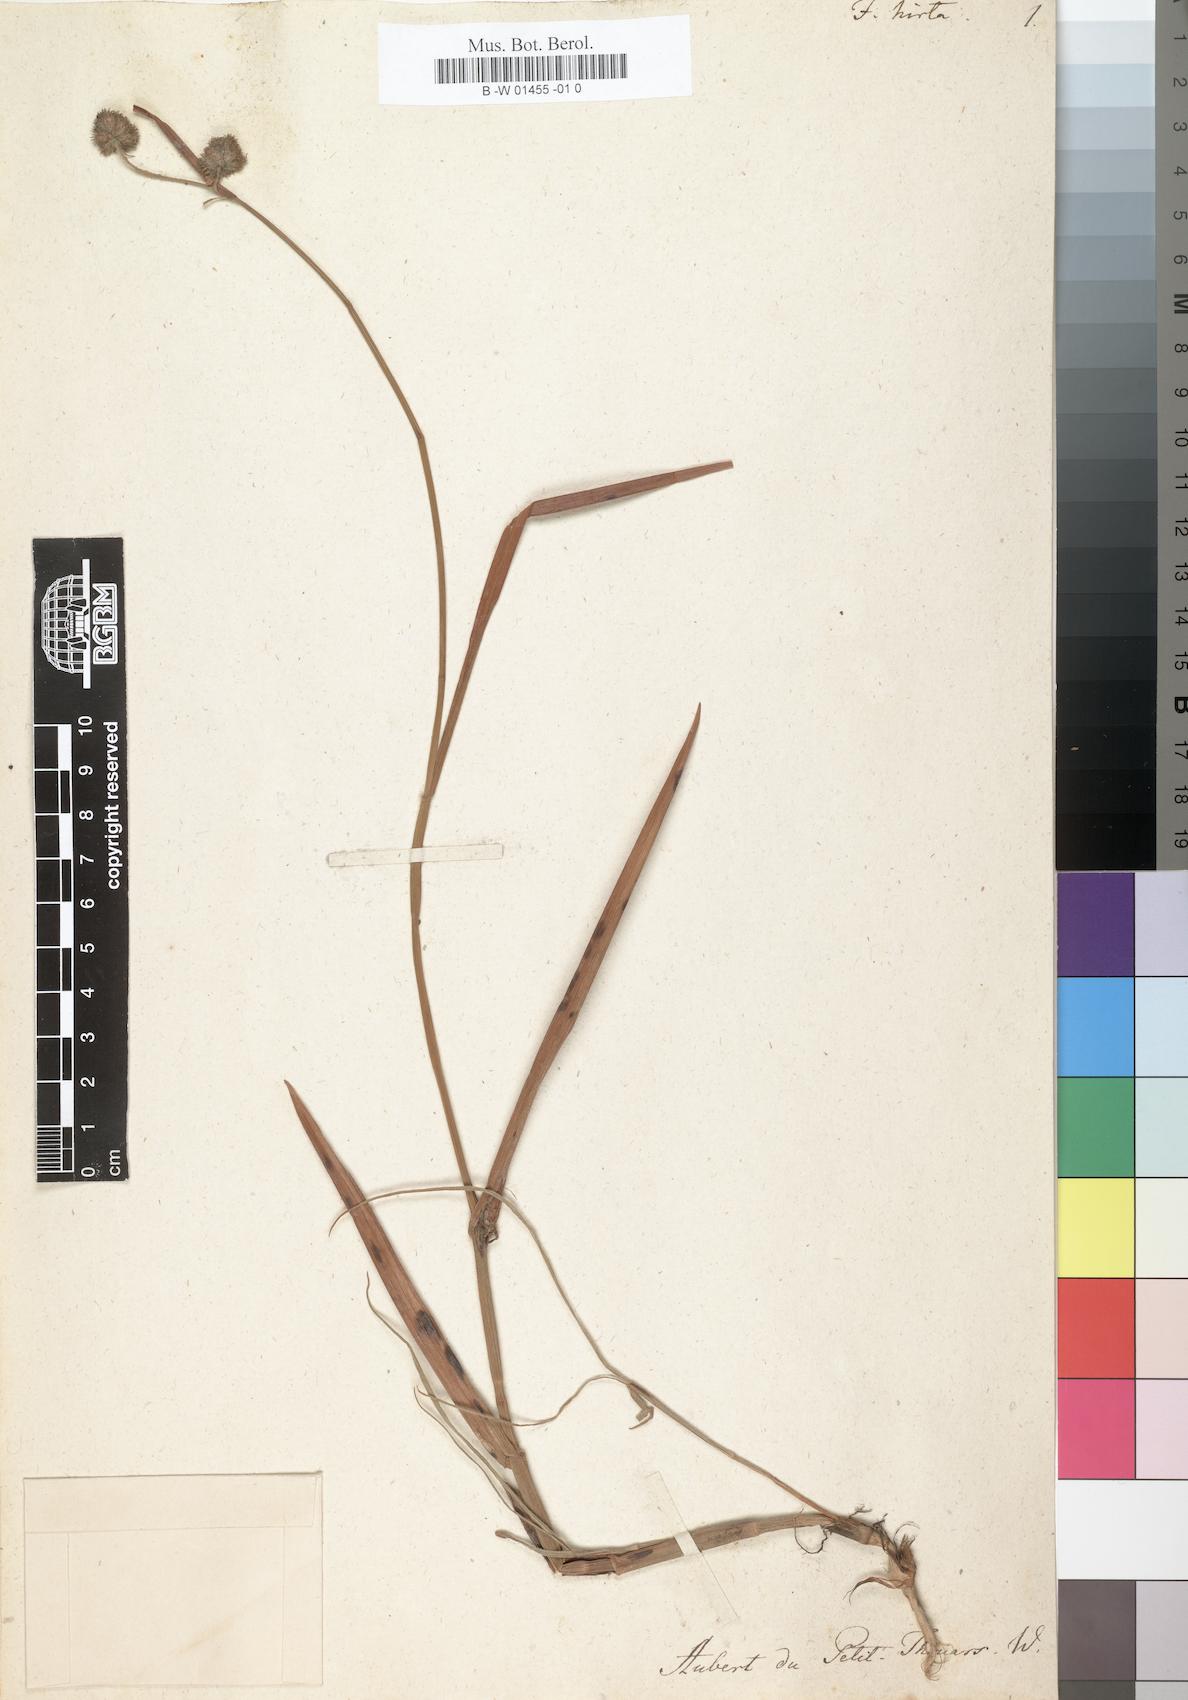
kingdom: Plantae
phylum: Tracheophyta
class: Liliopsida
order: Poales
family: Cyperaceae
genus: Fuirena
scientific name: Fuirena hirsuta
